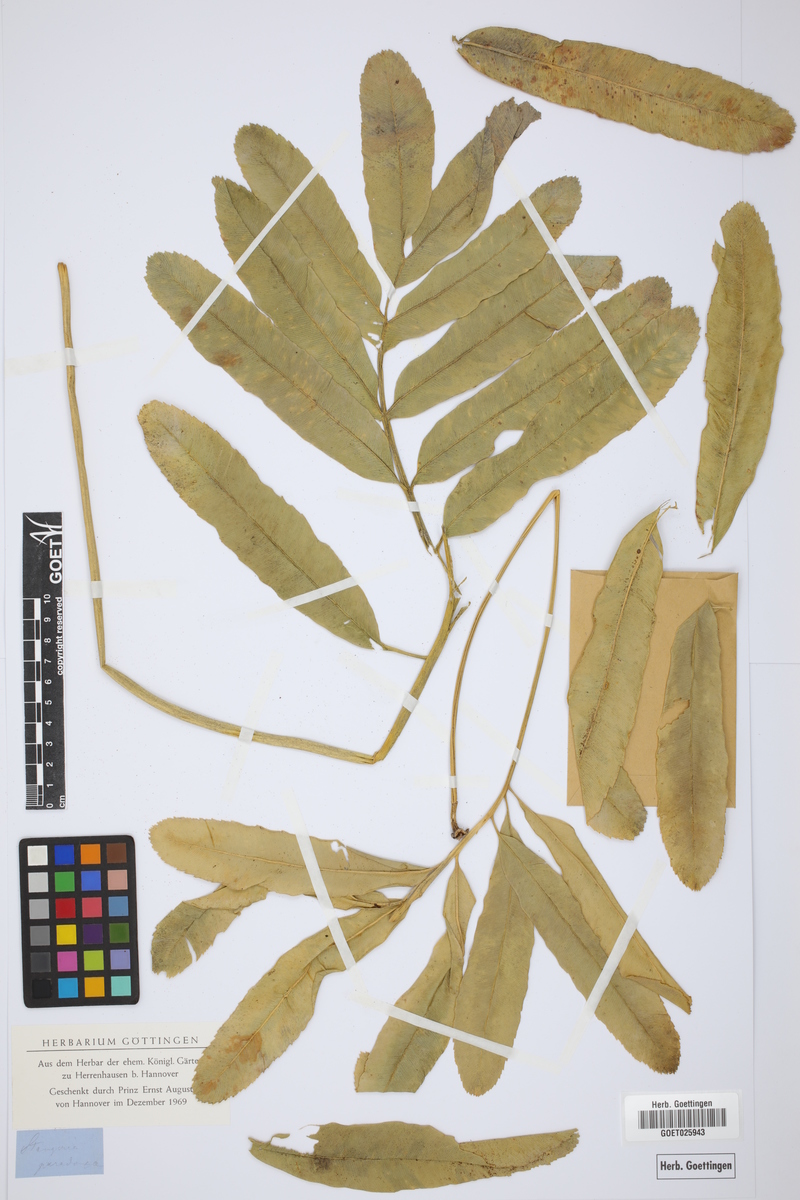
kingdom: Plantae
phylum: Tracheophyta
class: Cycadopsida
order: Cycadales
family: Zamiaceae
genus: Stangeria
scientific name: Stangeria eriopus
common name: Natal grass cycad
